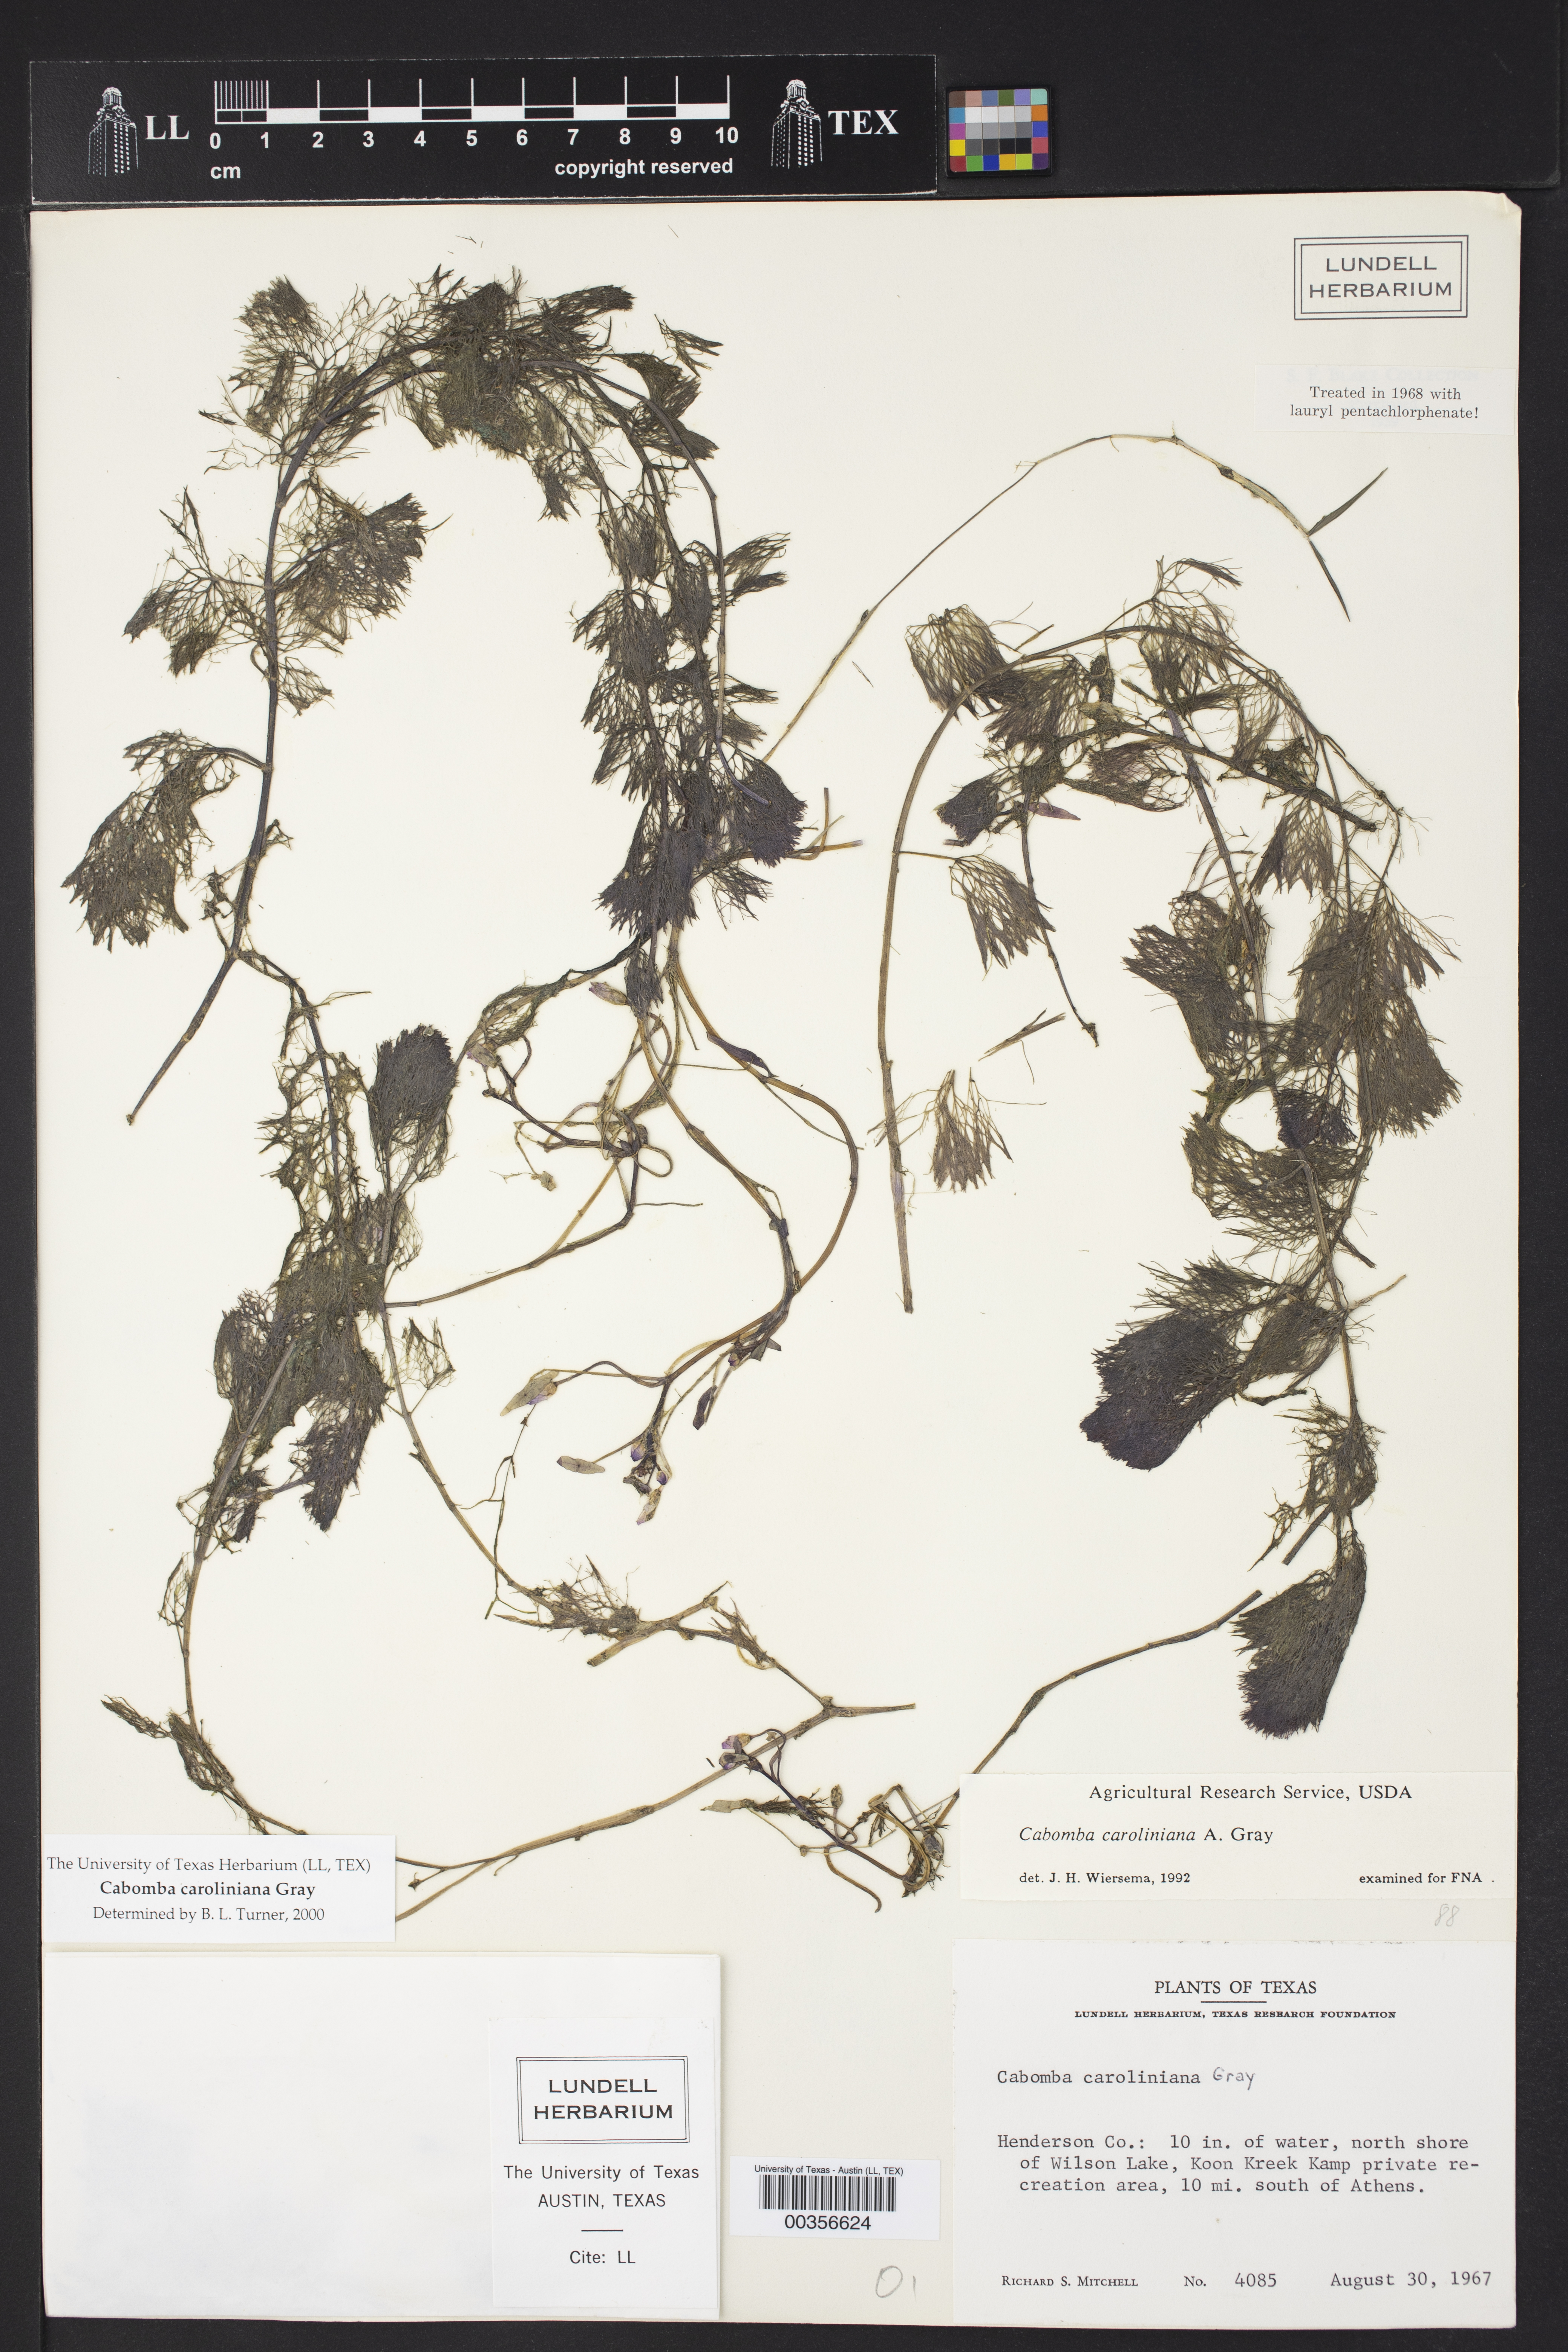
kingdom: Plantae
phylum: Tracheophyta
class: Magnoliopsida
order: Nymphaeales
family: Cabombaceae
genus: Cabomba
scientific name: Cabomba caroliniana
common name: Fanwort
